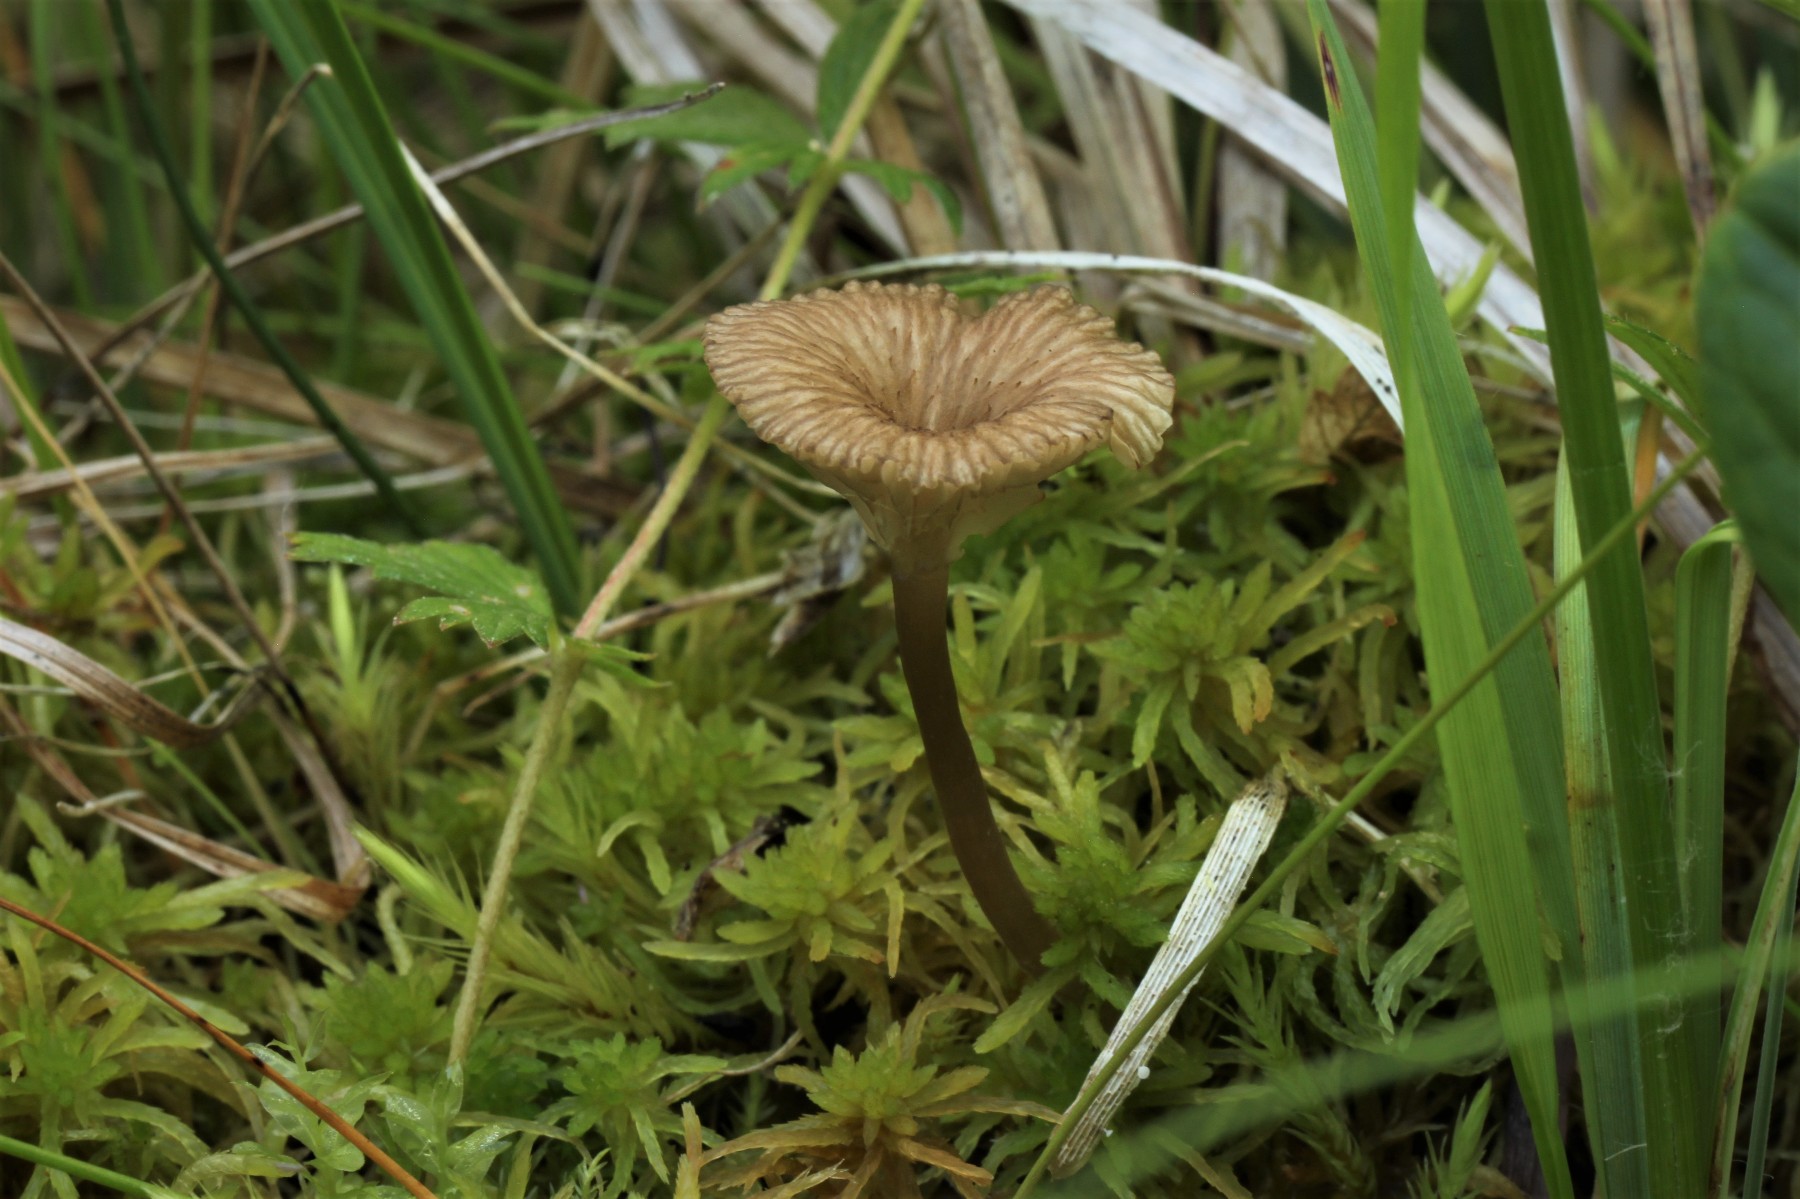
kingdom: Fungi
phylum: Basidiomycota
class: Agaricomycetes
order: Agaricales
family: Hygrophoraceae
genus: Arrhenia
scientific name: Arrhenia gerardiana
